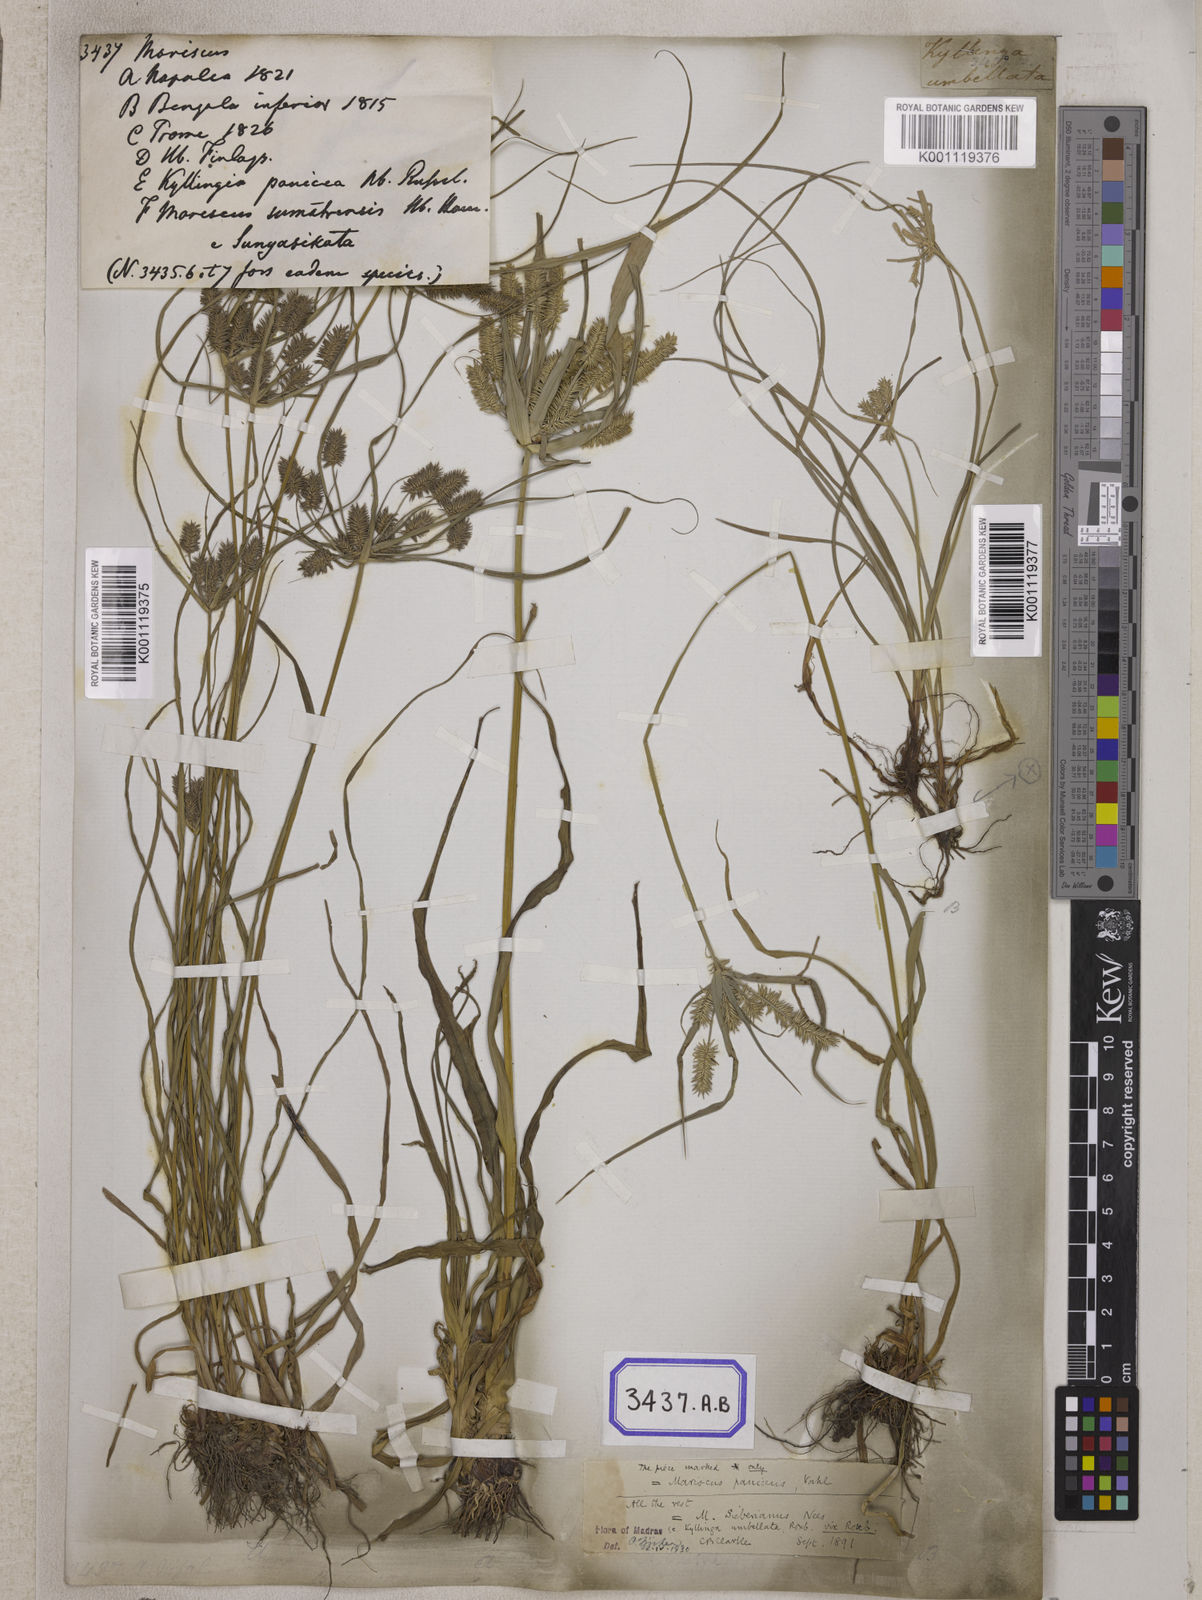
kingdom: Plantae
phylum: Tracheophyta
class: Liliopsida
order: Poales
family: Cyperaceae
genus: Mariscus
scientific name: Mariscus
